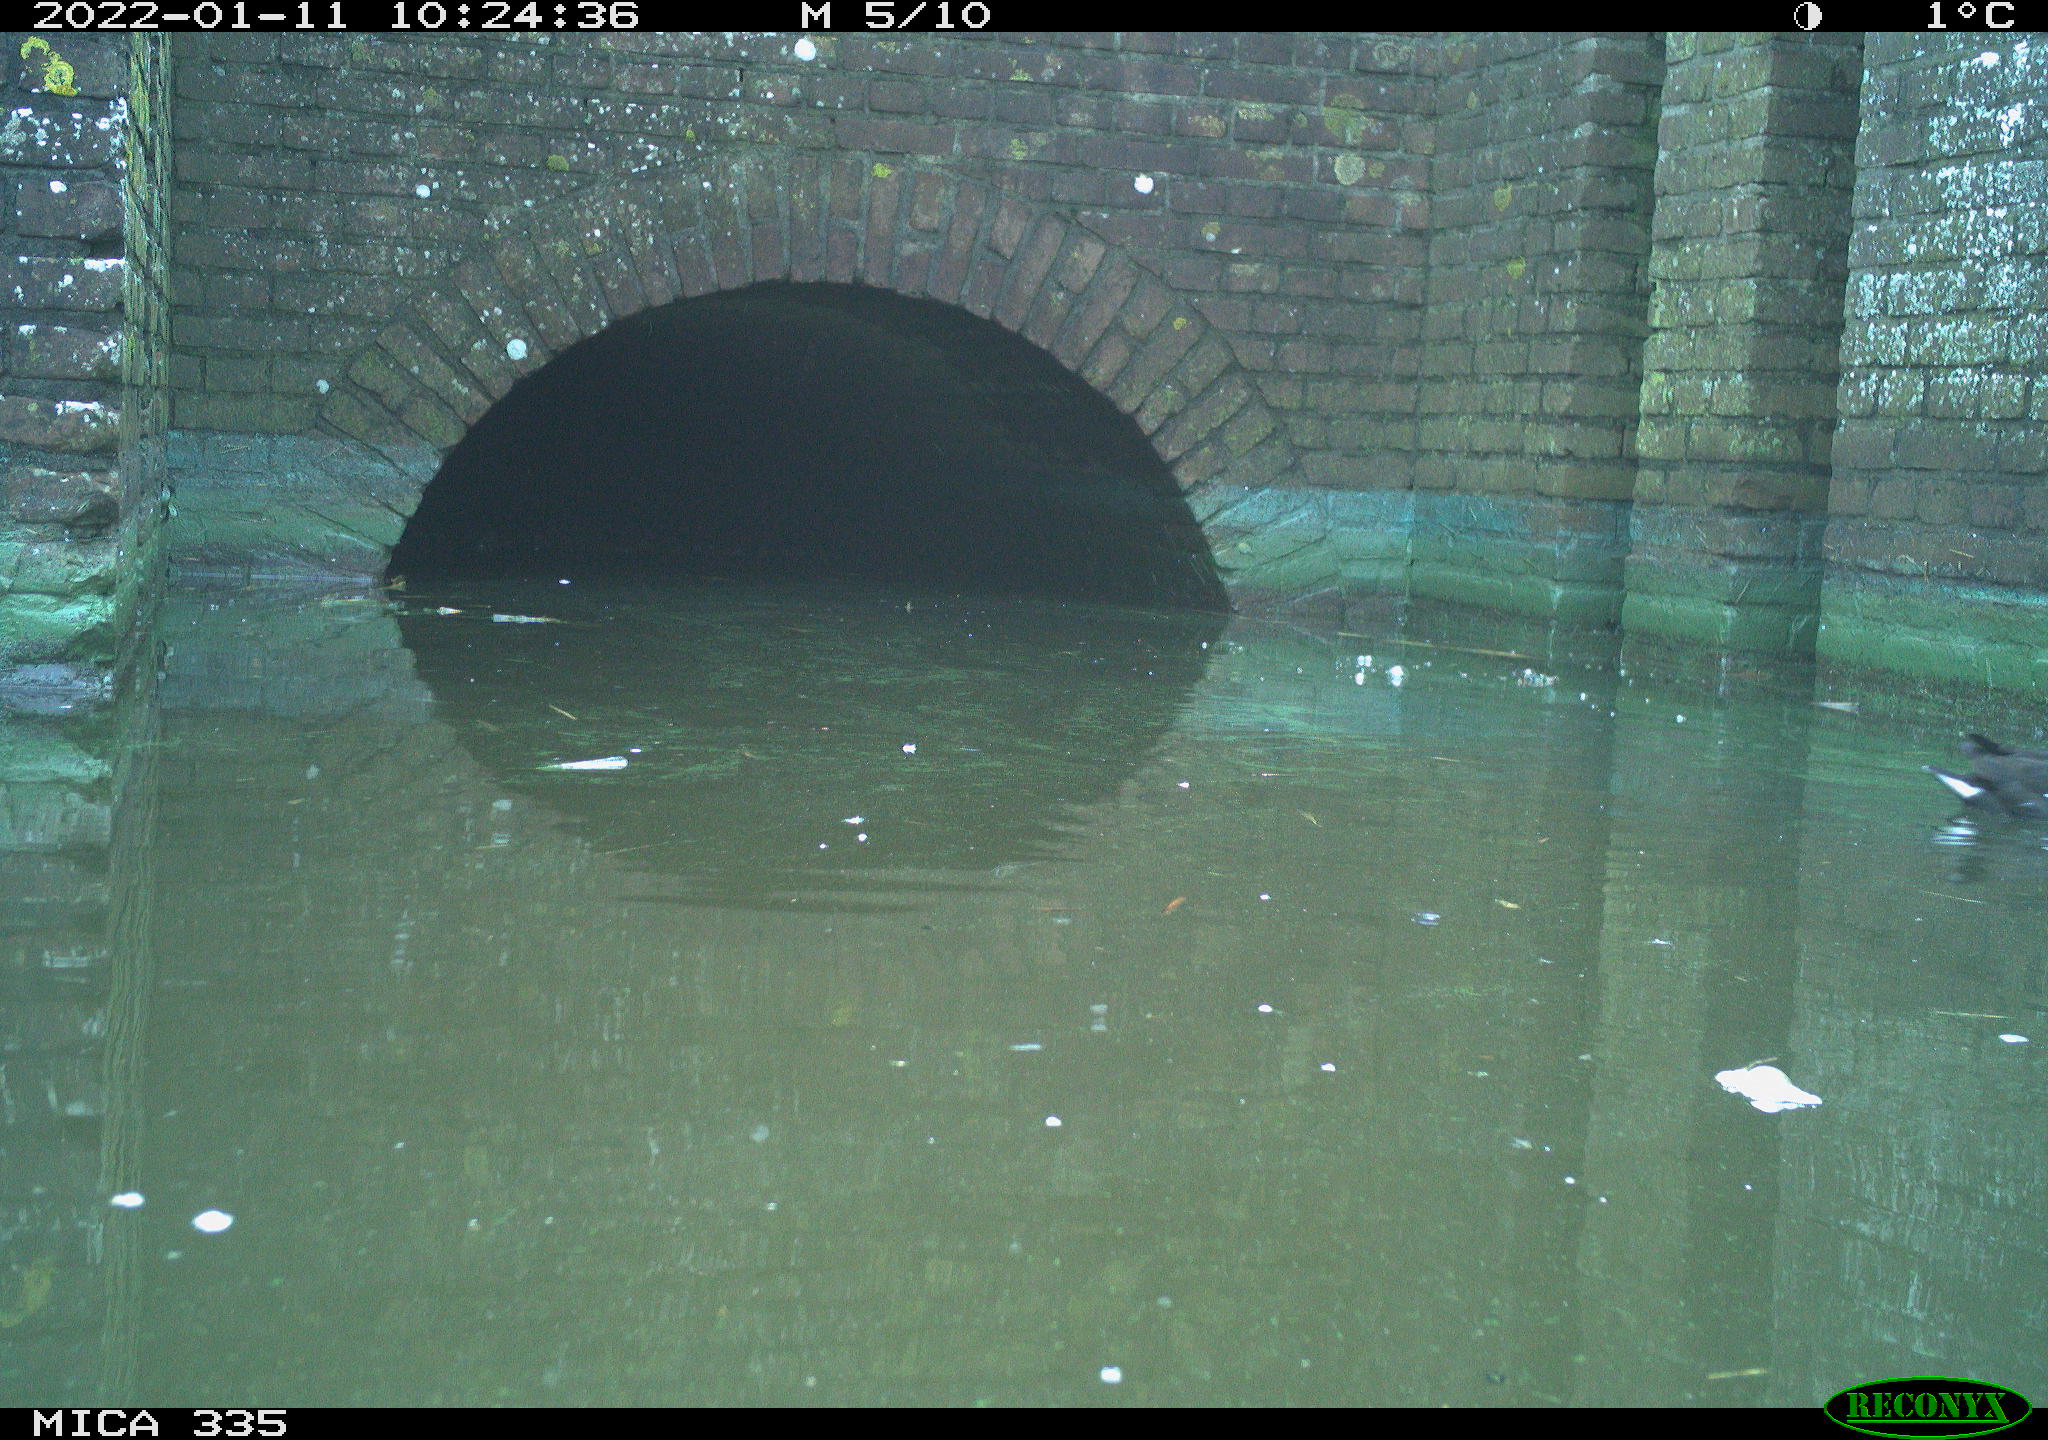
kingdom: Animalia
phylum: Chordata
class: Aves
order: Gruiformes
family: Rallidae
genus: Gallinula
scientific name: Gallinula chloropus
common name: Common moorhen
